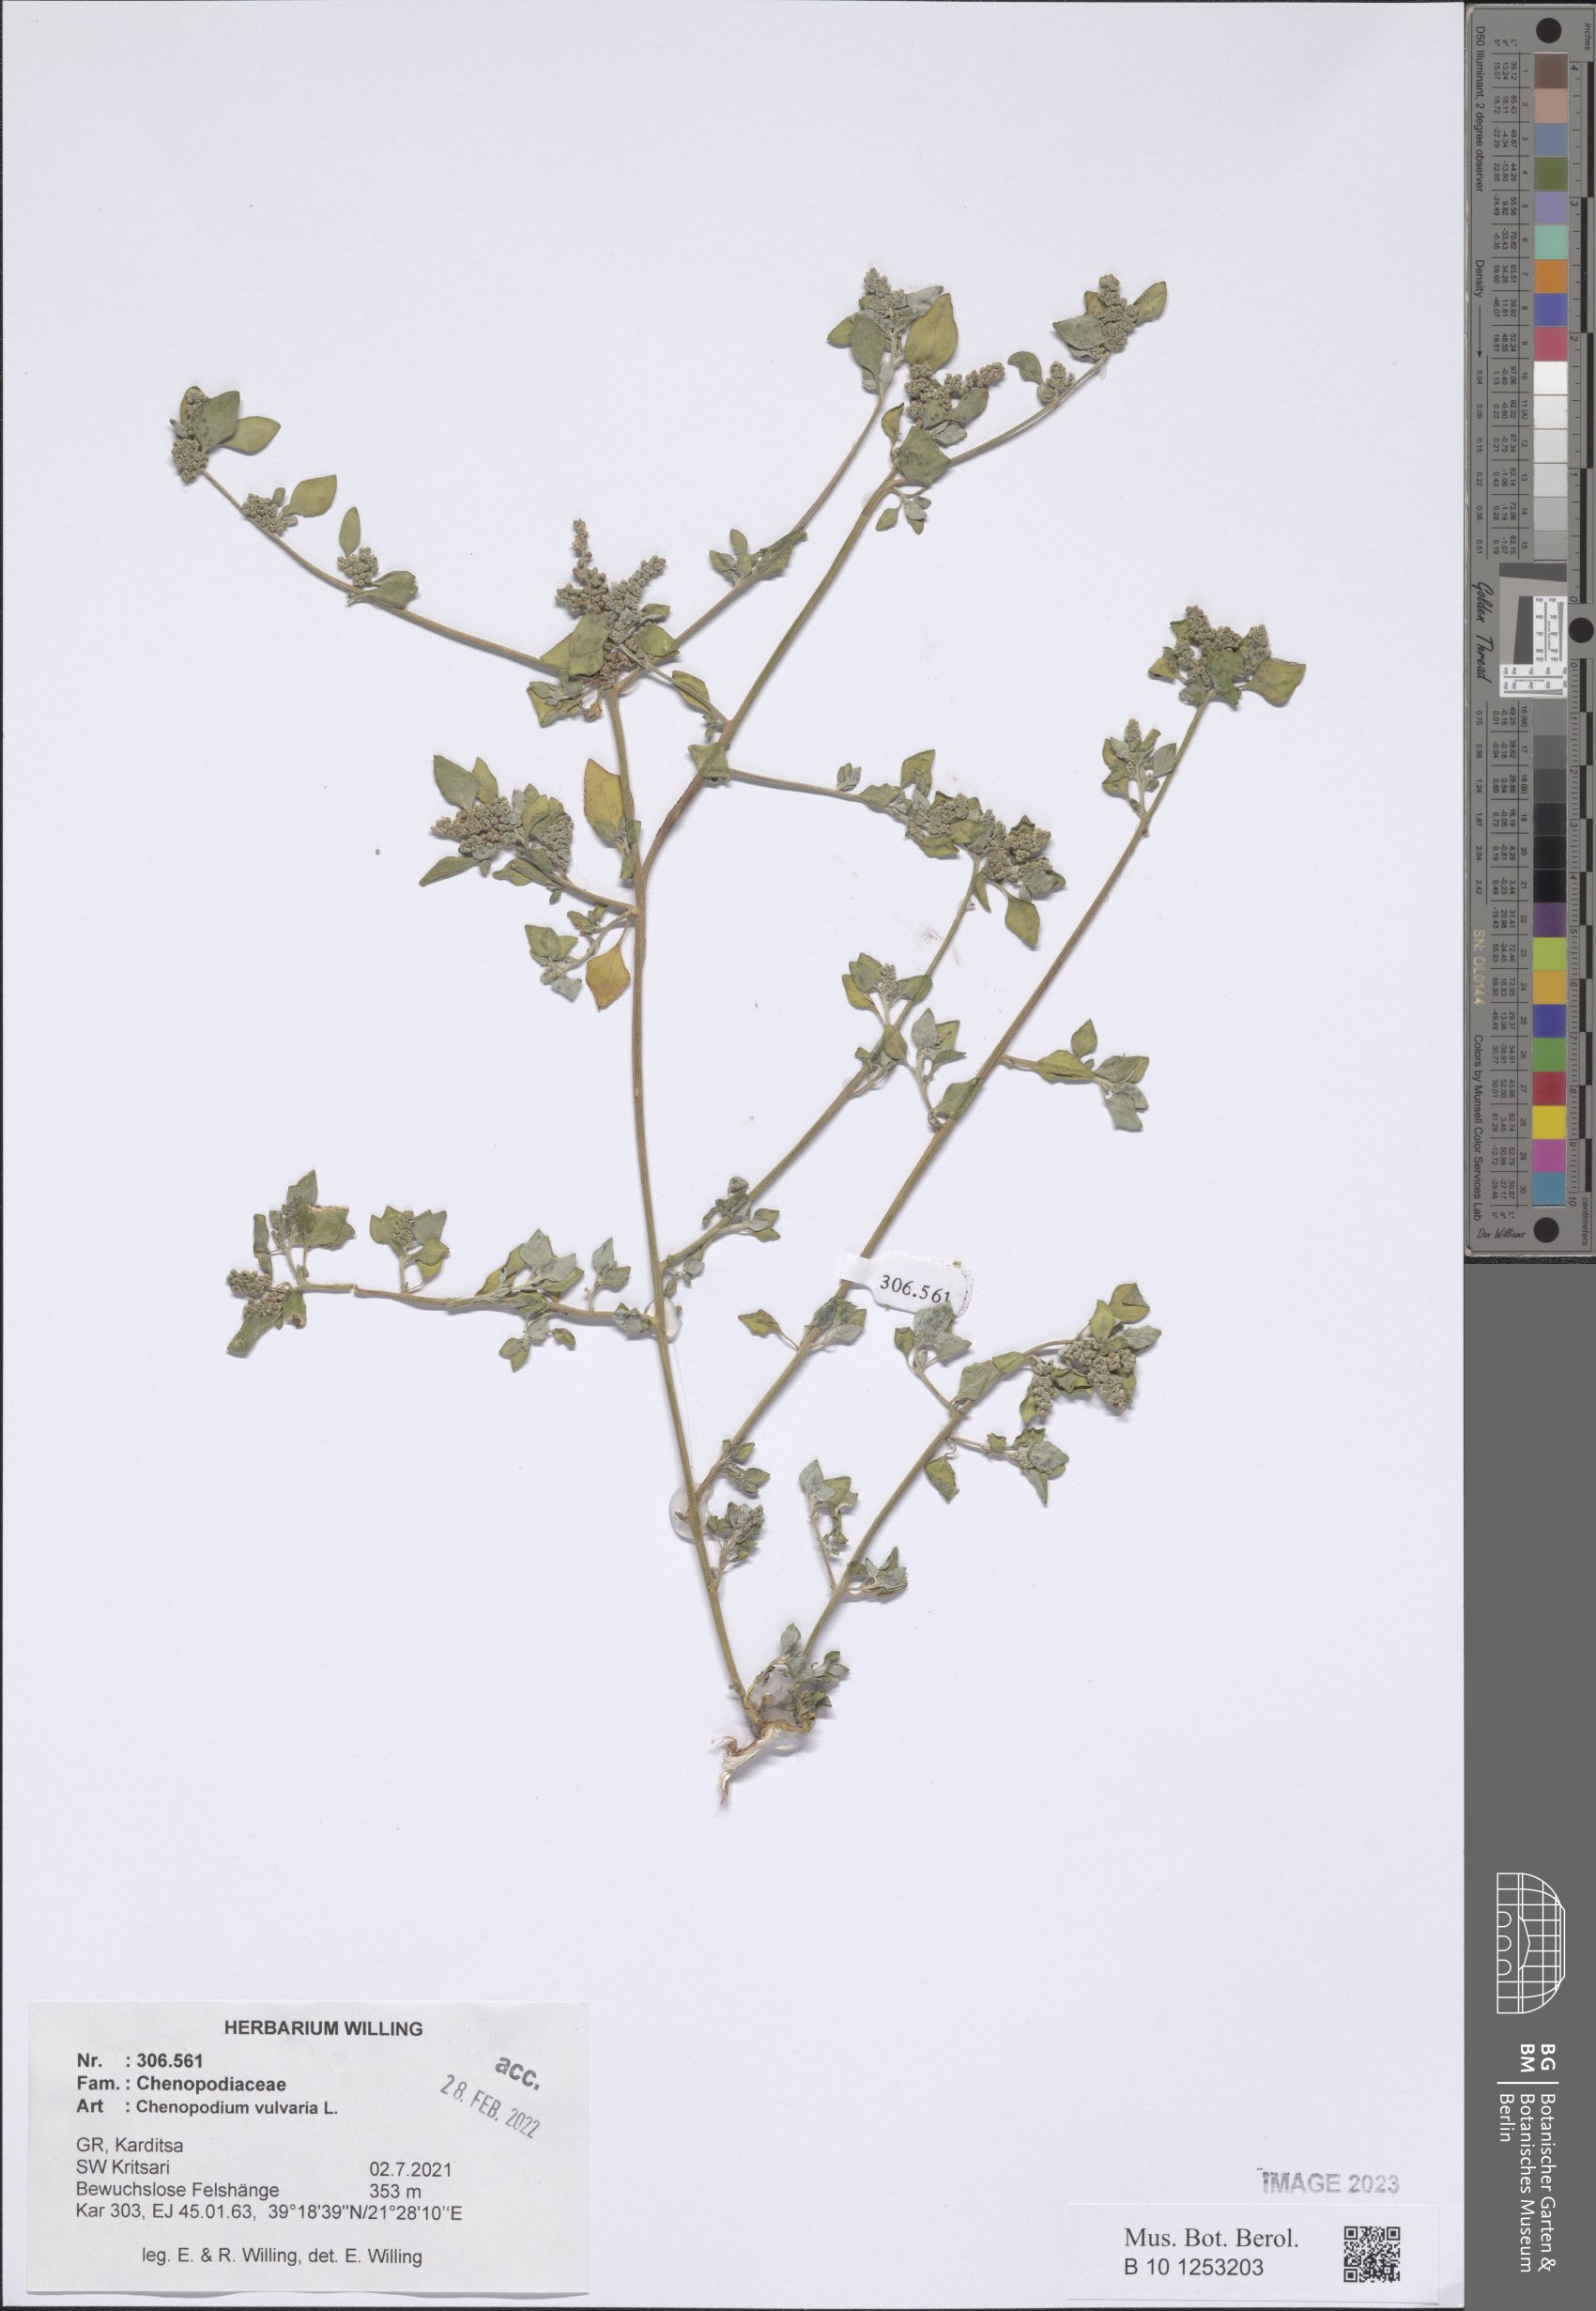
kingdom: Plantae
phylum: Tracheophyta
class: Magnoliopsida
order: Caryophyllales
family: Amaranthaceae
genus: Chenopodium
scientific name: Chenopodium vulvaria
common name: Stinking goosefoot
